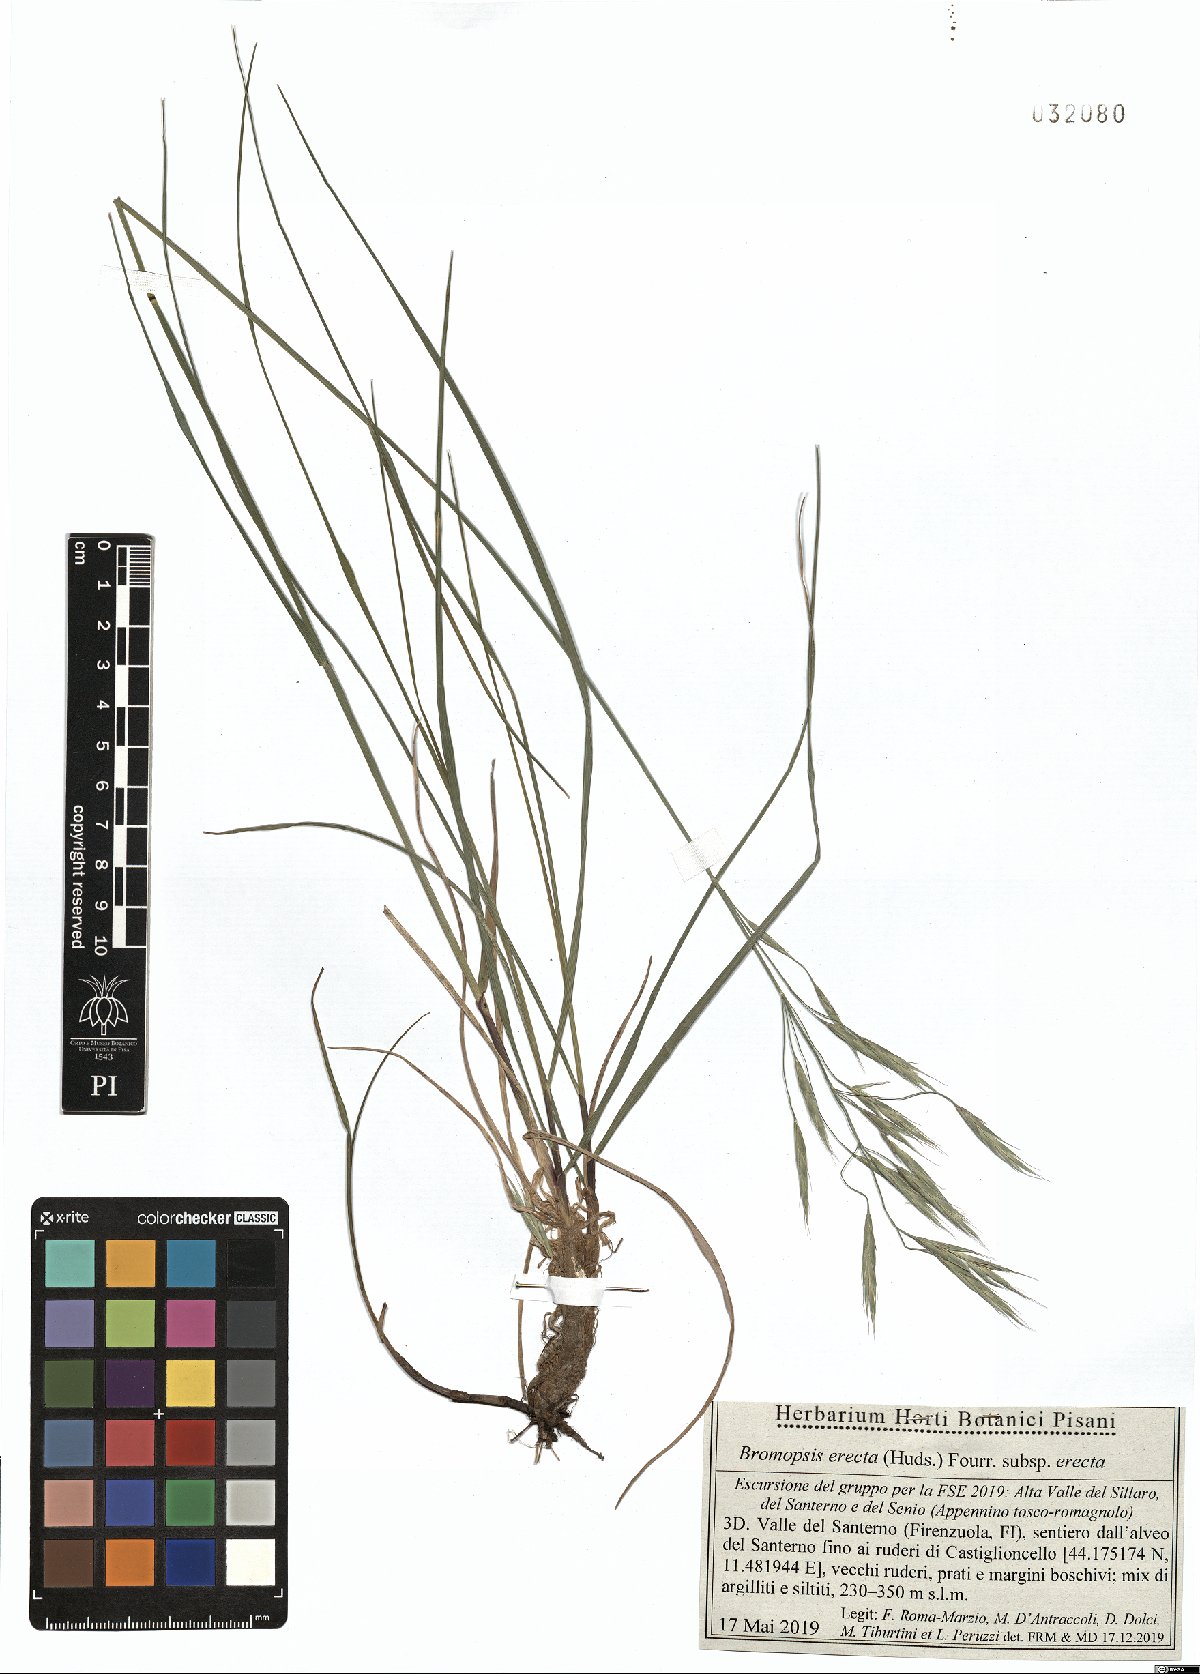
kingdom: Plantae
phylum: Tracheophyta
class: Liliopsida
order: Poales
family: Poaceae
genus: Bromus
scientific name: Bromus erectus
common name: Erect brome
